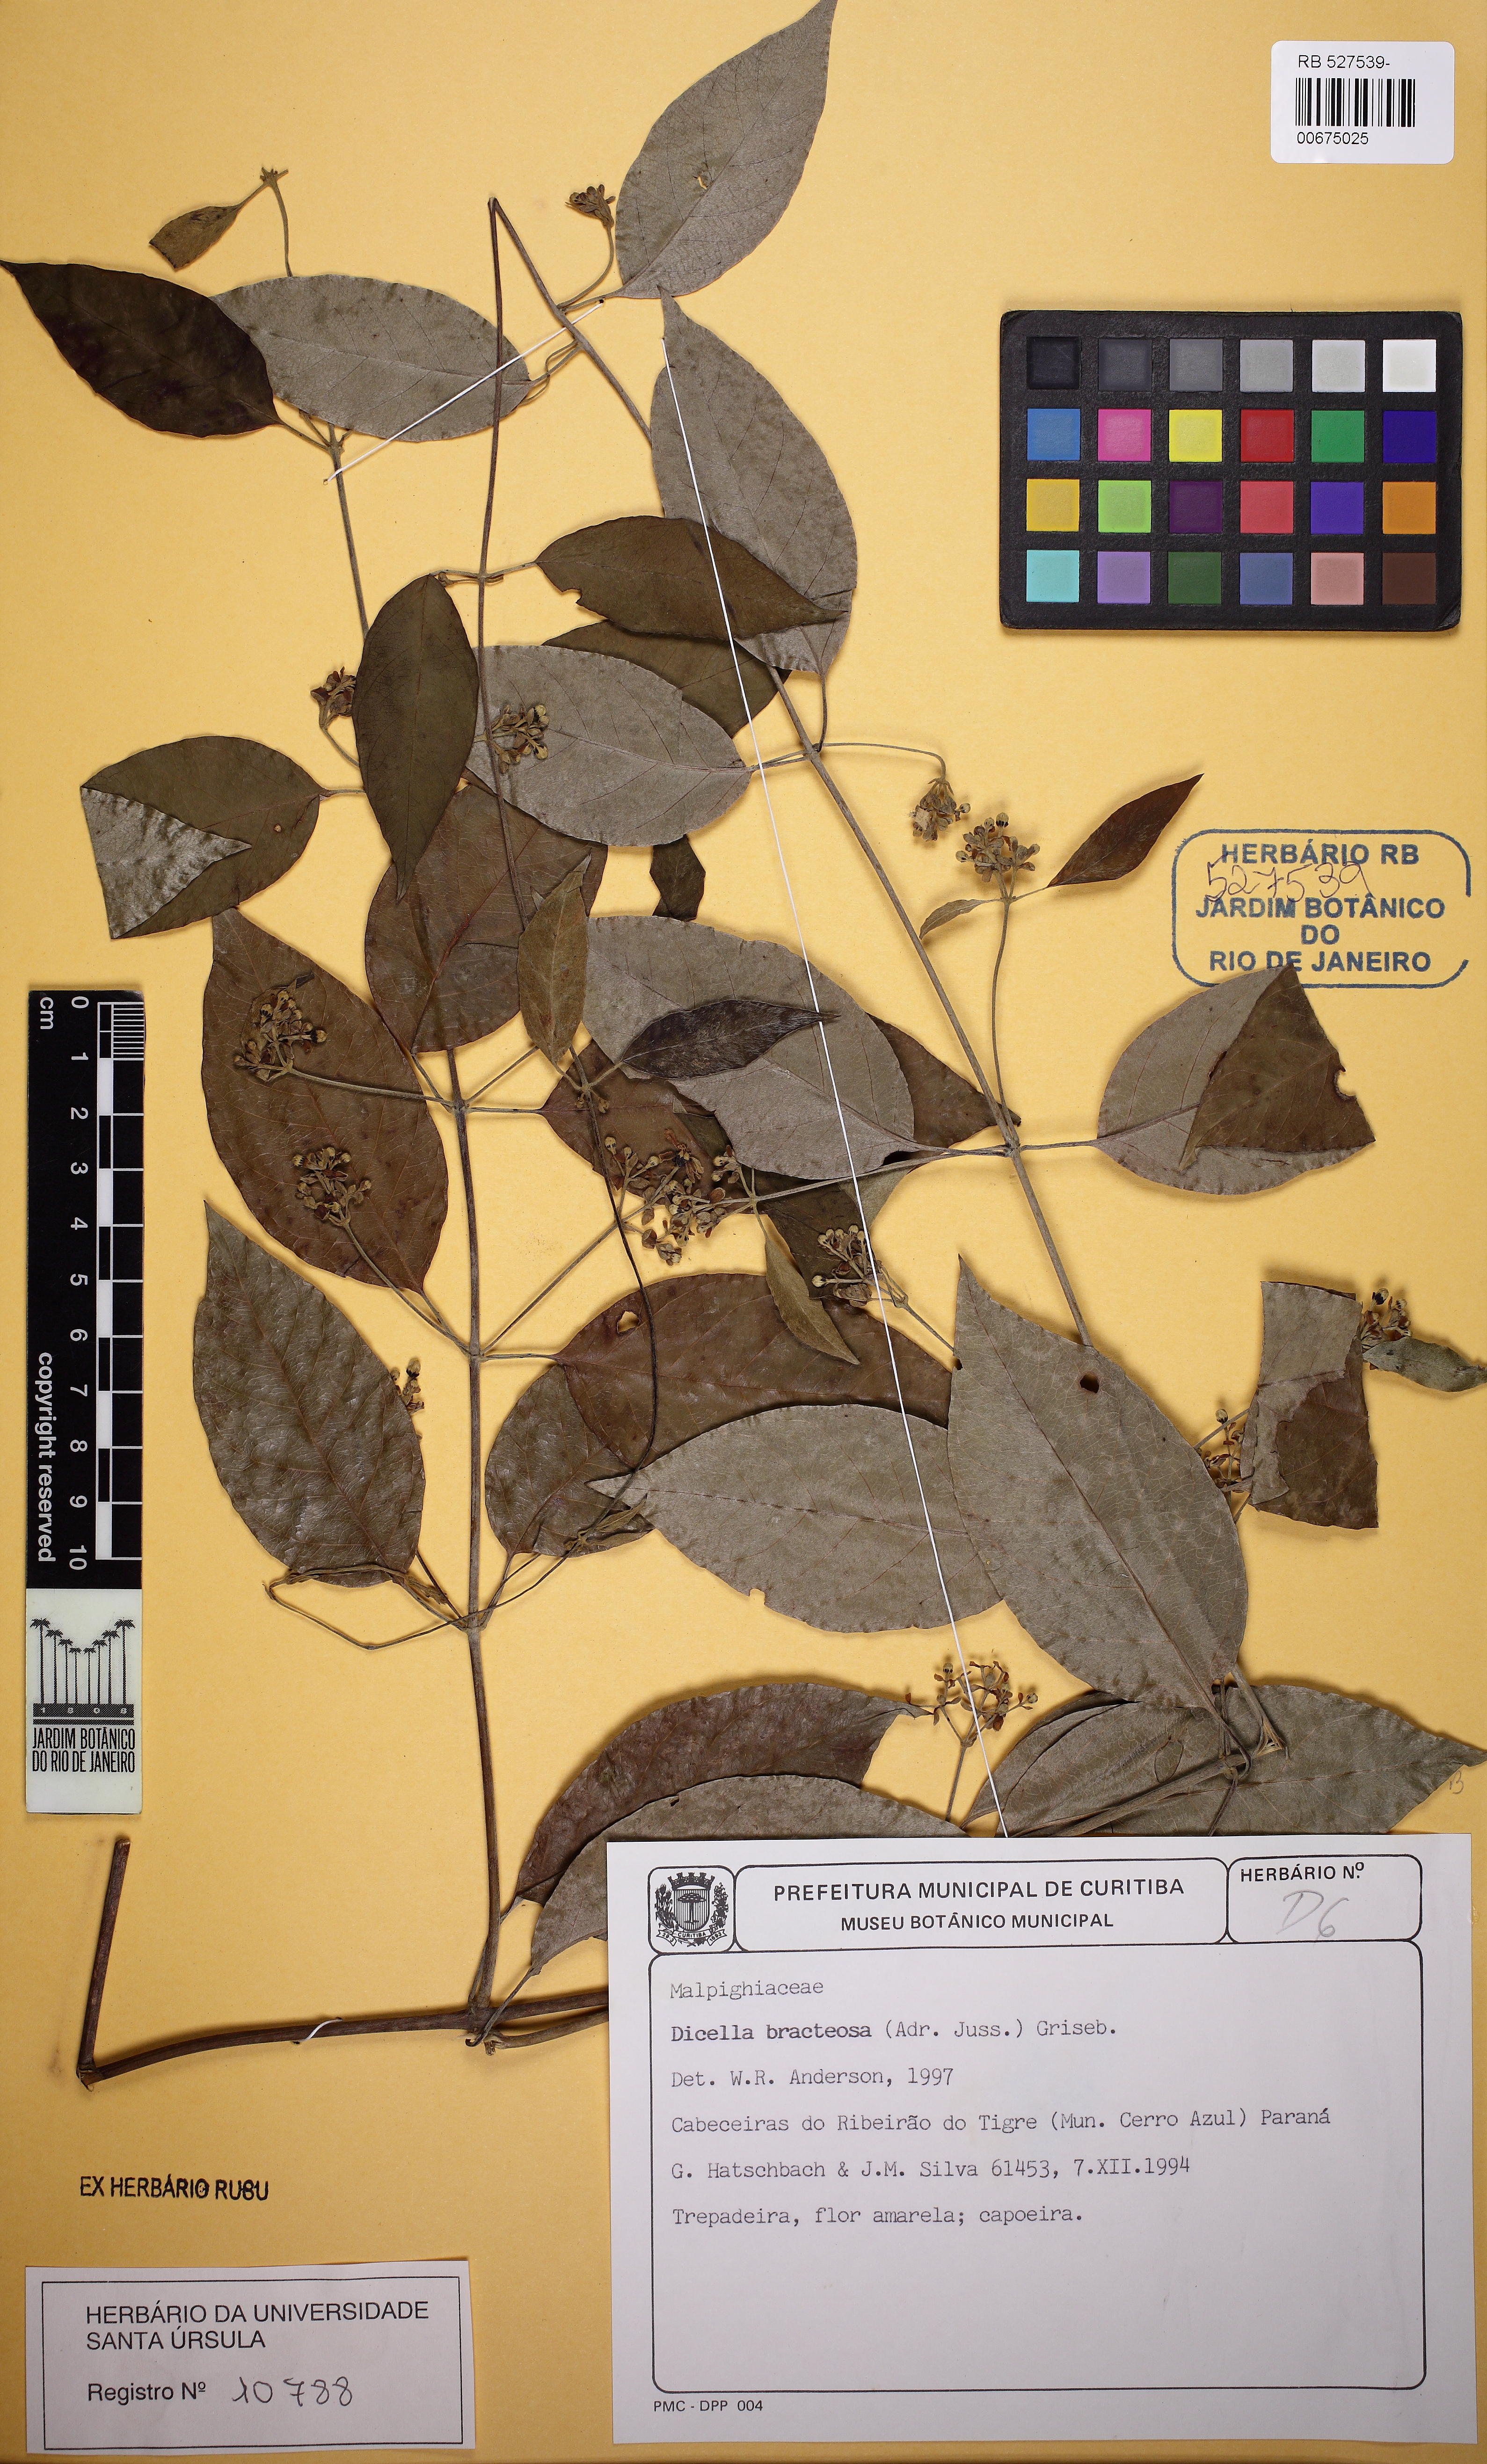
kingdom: Plantae
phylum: Tracheophyta
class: Magnoliopsida
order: Malpighiales
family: Malpighiaceae
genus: Dicella
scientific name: Dicella bracteosa
